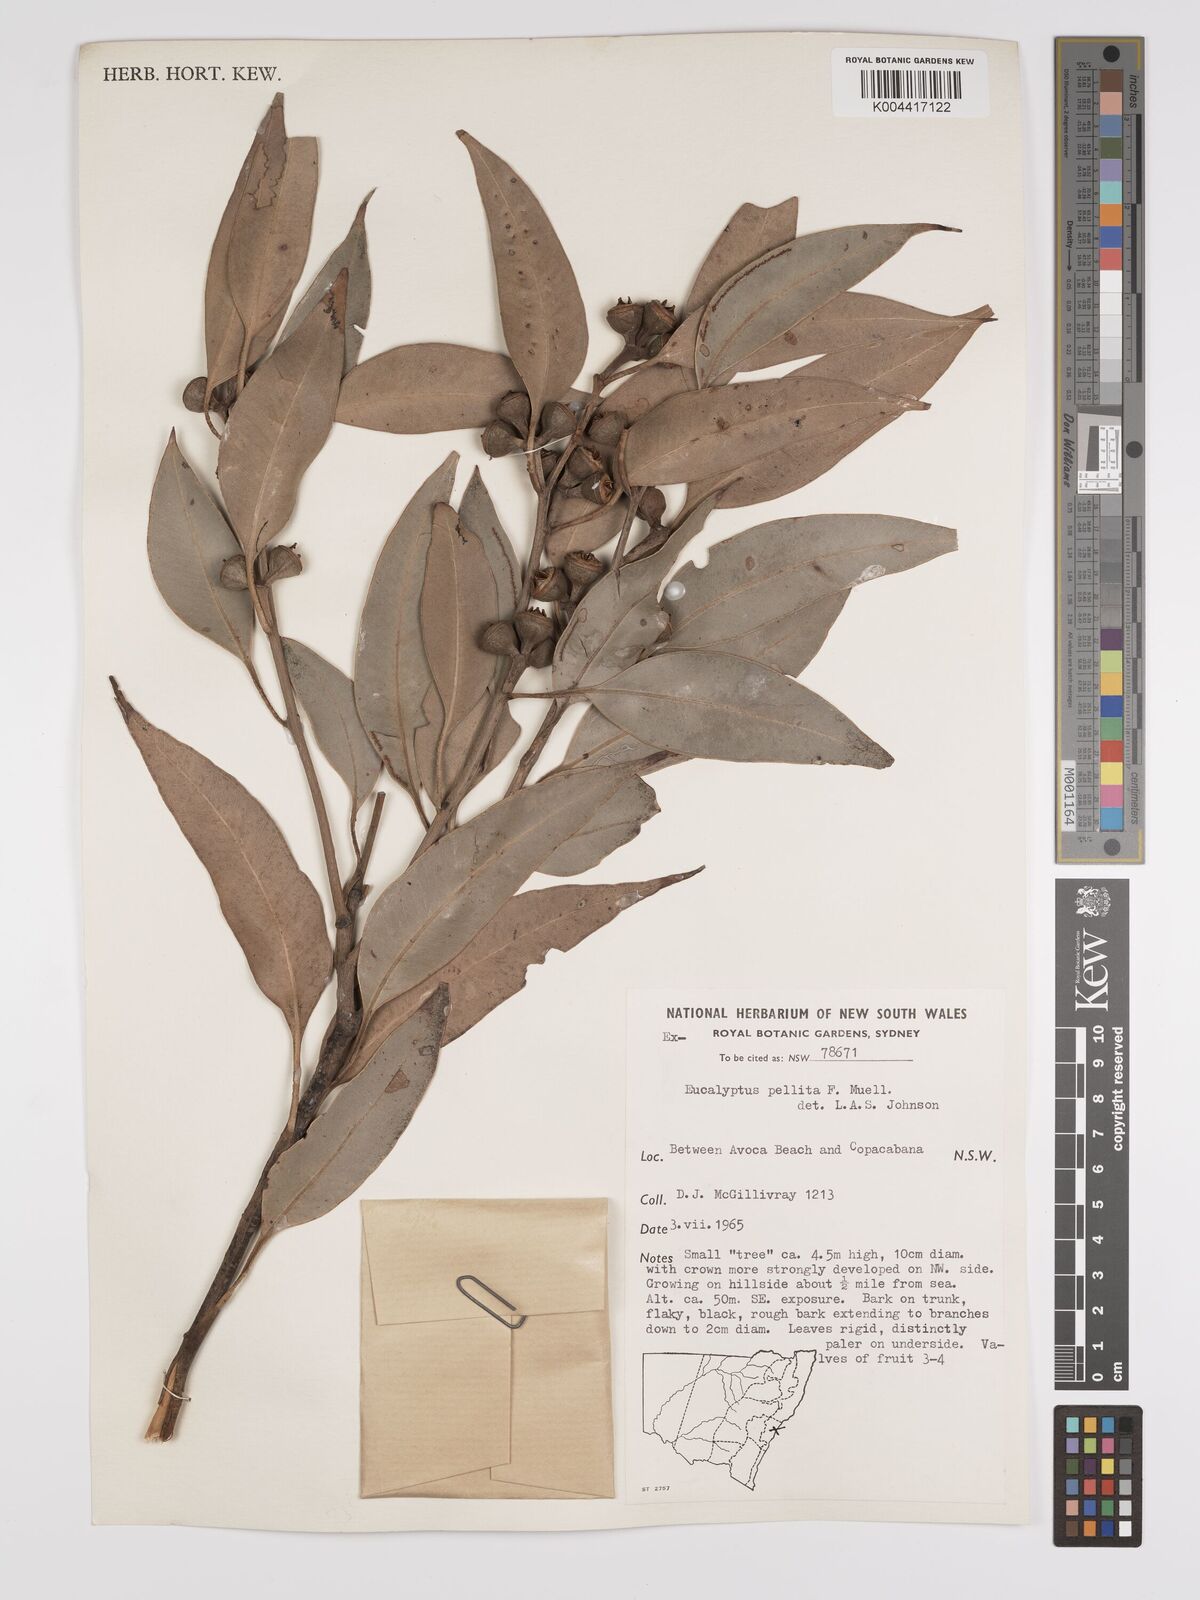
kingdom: Plantae
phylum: Tracheophyta
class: Magnoliopsida
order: Myrtales
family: Myrtaceae
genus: Eucalyptus
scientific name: Eucalyptus pellita
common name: Large-fruited-red-mahogany
